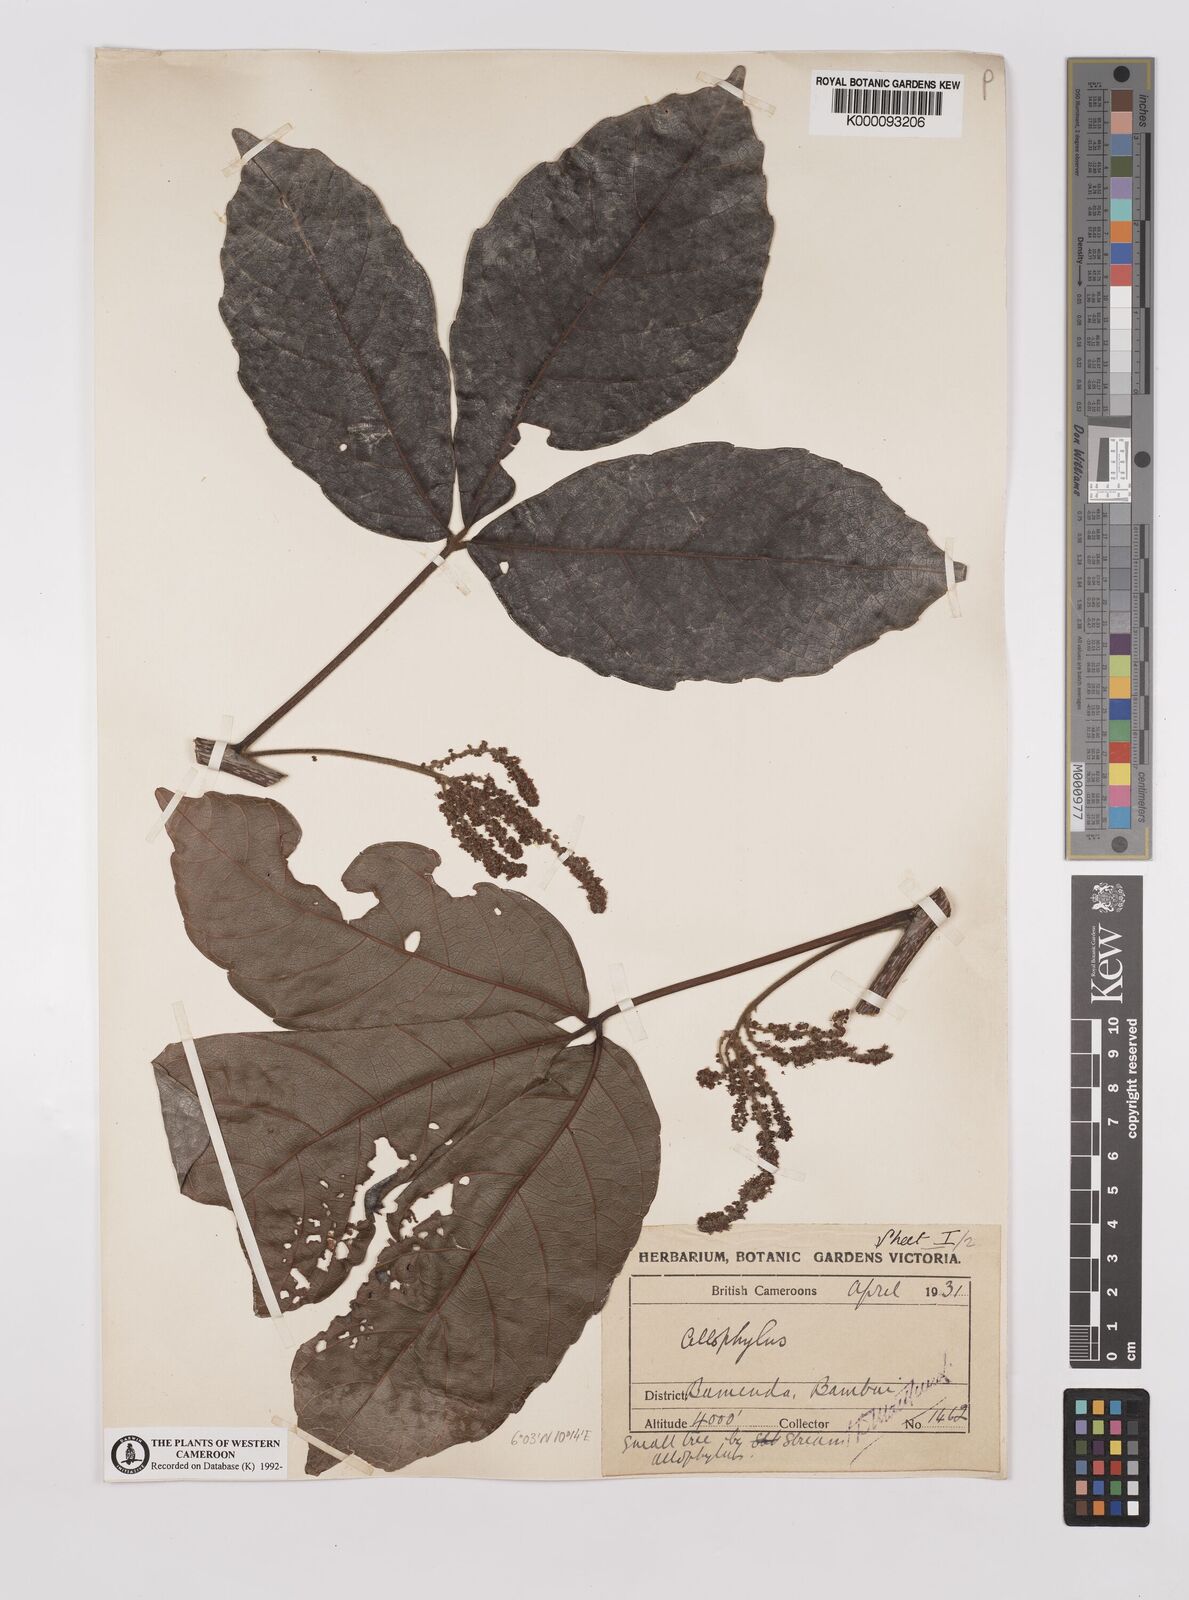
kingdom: Plantae
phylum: Tracheophyta
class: Magnoliopsida
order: Sapindales
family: Sapindaceae
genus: Allophylus
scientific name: Allophylus
